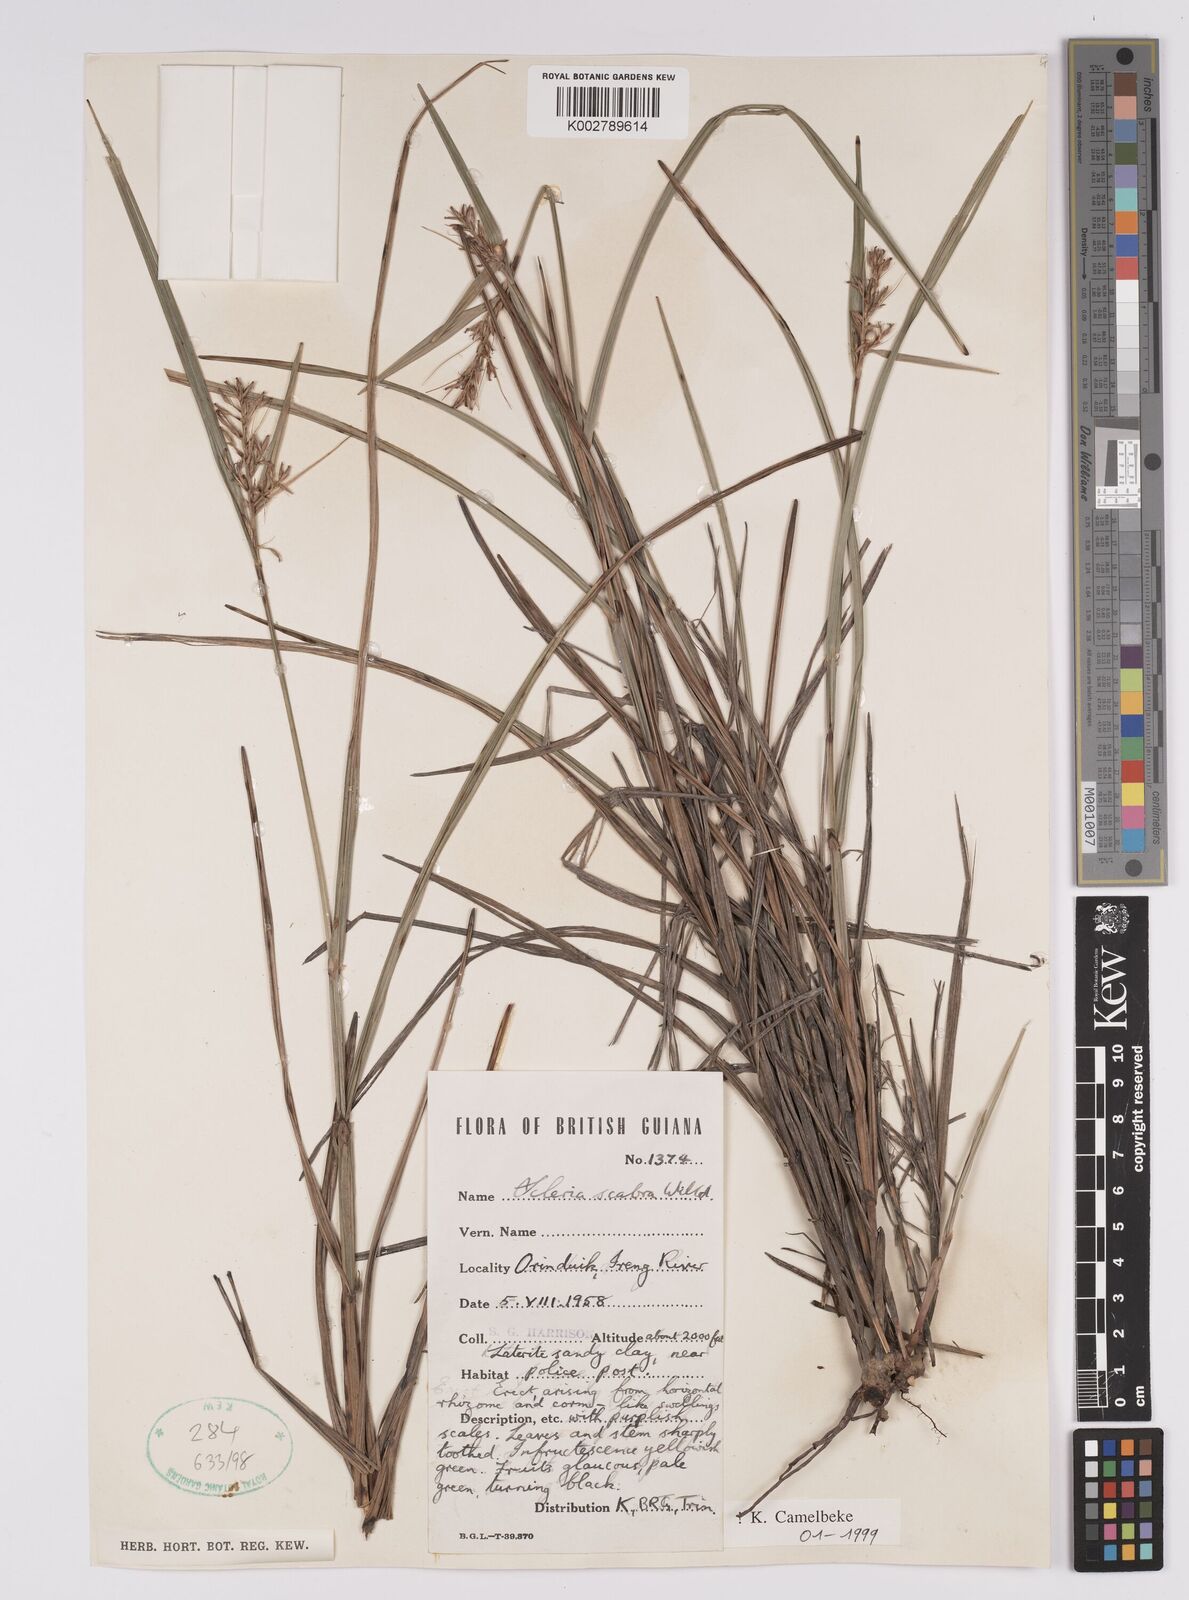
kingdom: Plantae
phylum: Tracheophyta
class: Liliopsida
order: Poales
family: Cyperaceae
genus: Scleria
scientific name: Scleria scabra
